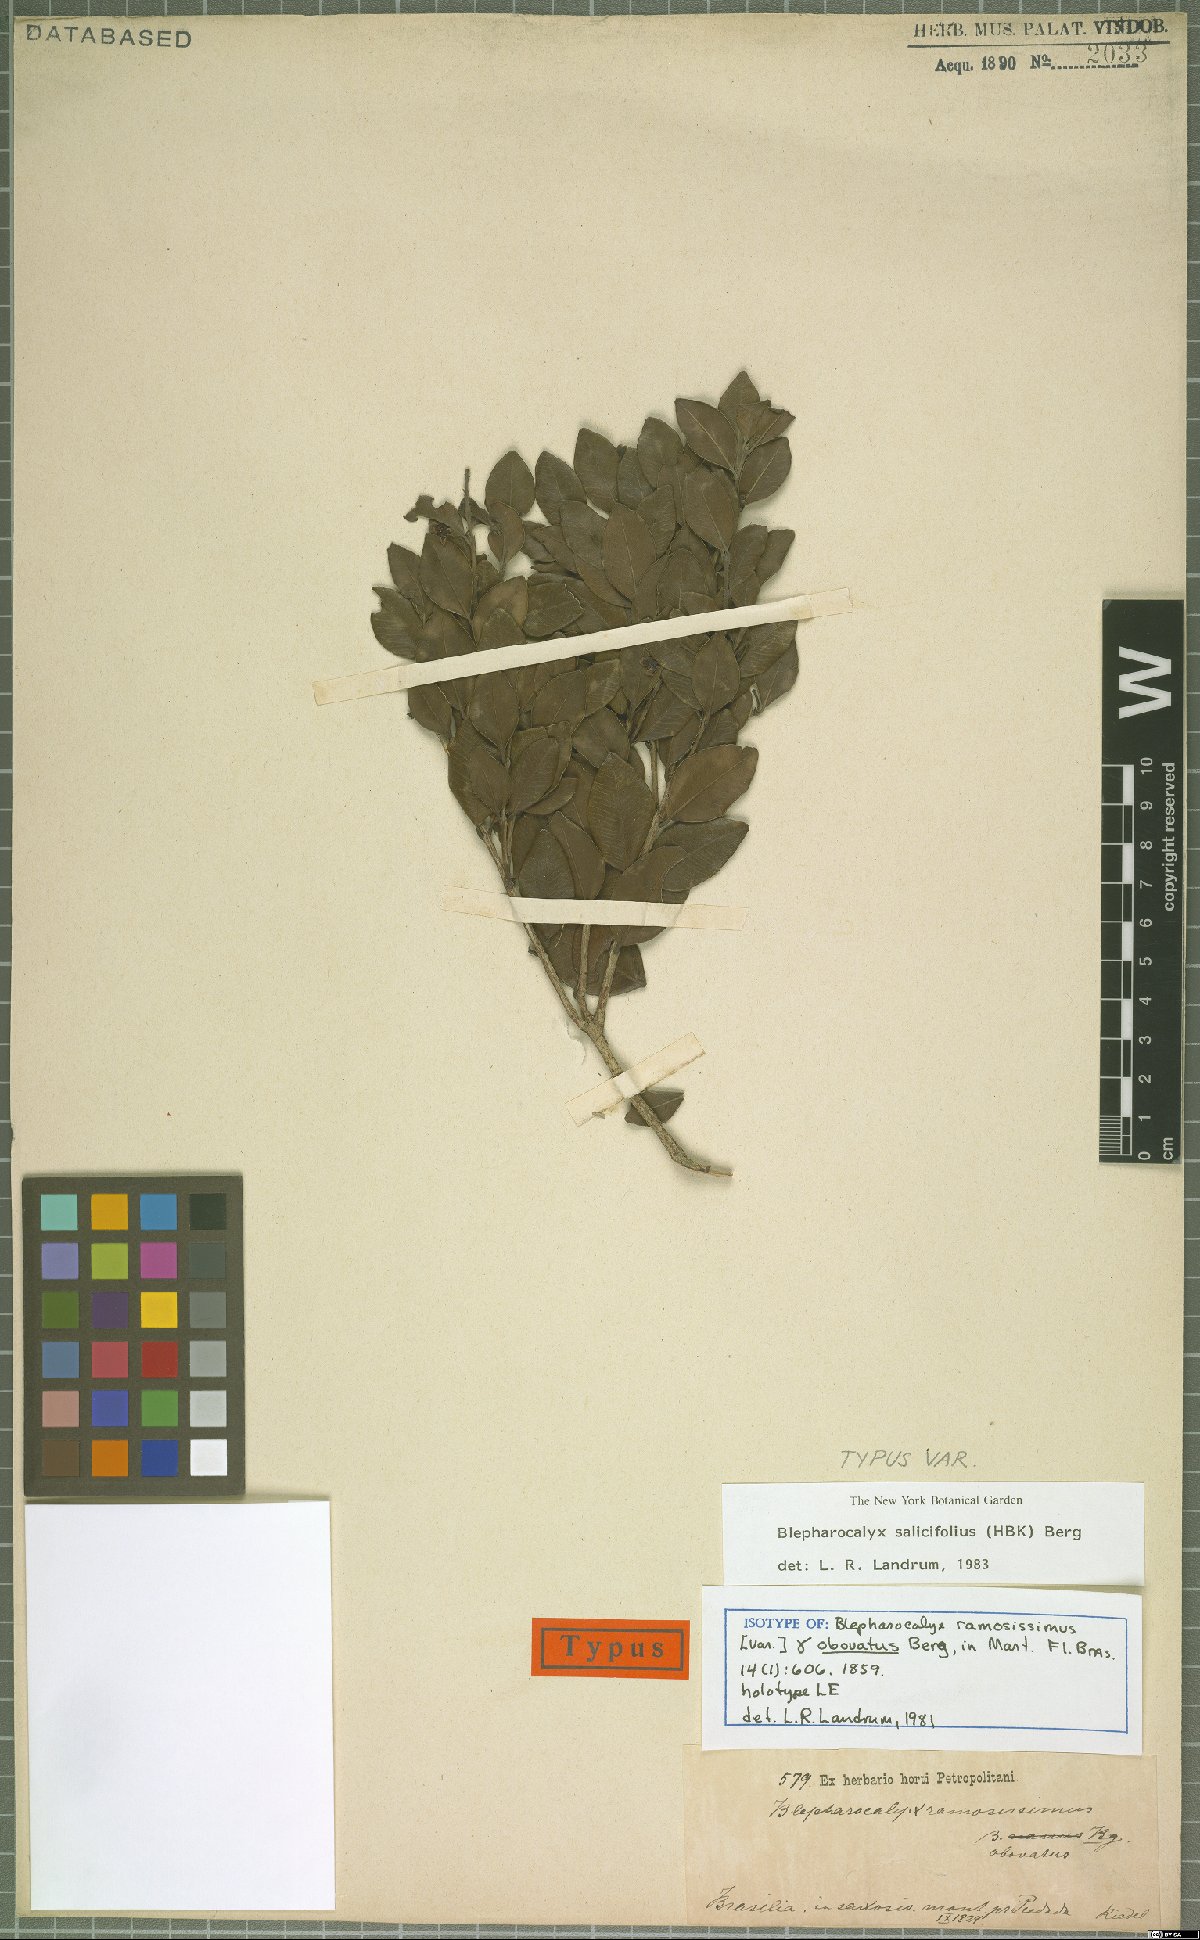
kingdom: Plantae
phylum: Tracheophyta
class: Magnoliopsida
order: Myrtales
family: Myrtaceae
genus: Blepharocalyx
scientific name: Blepharocalyx salicifolius
